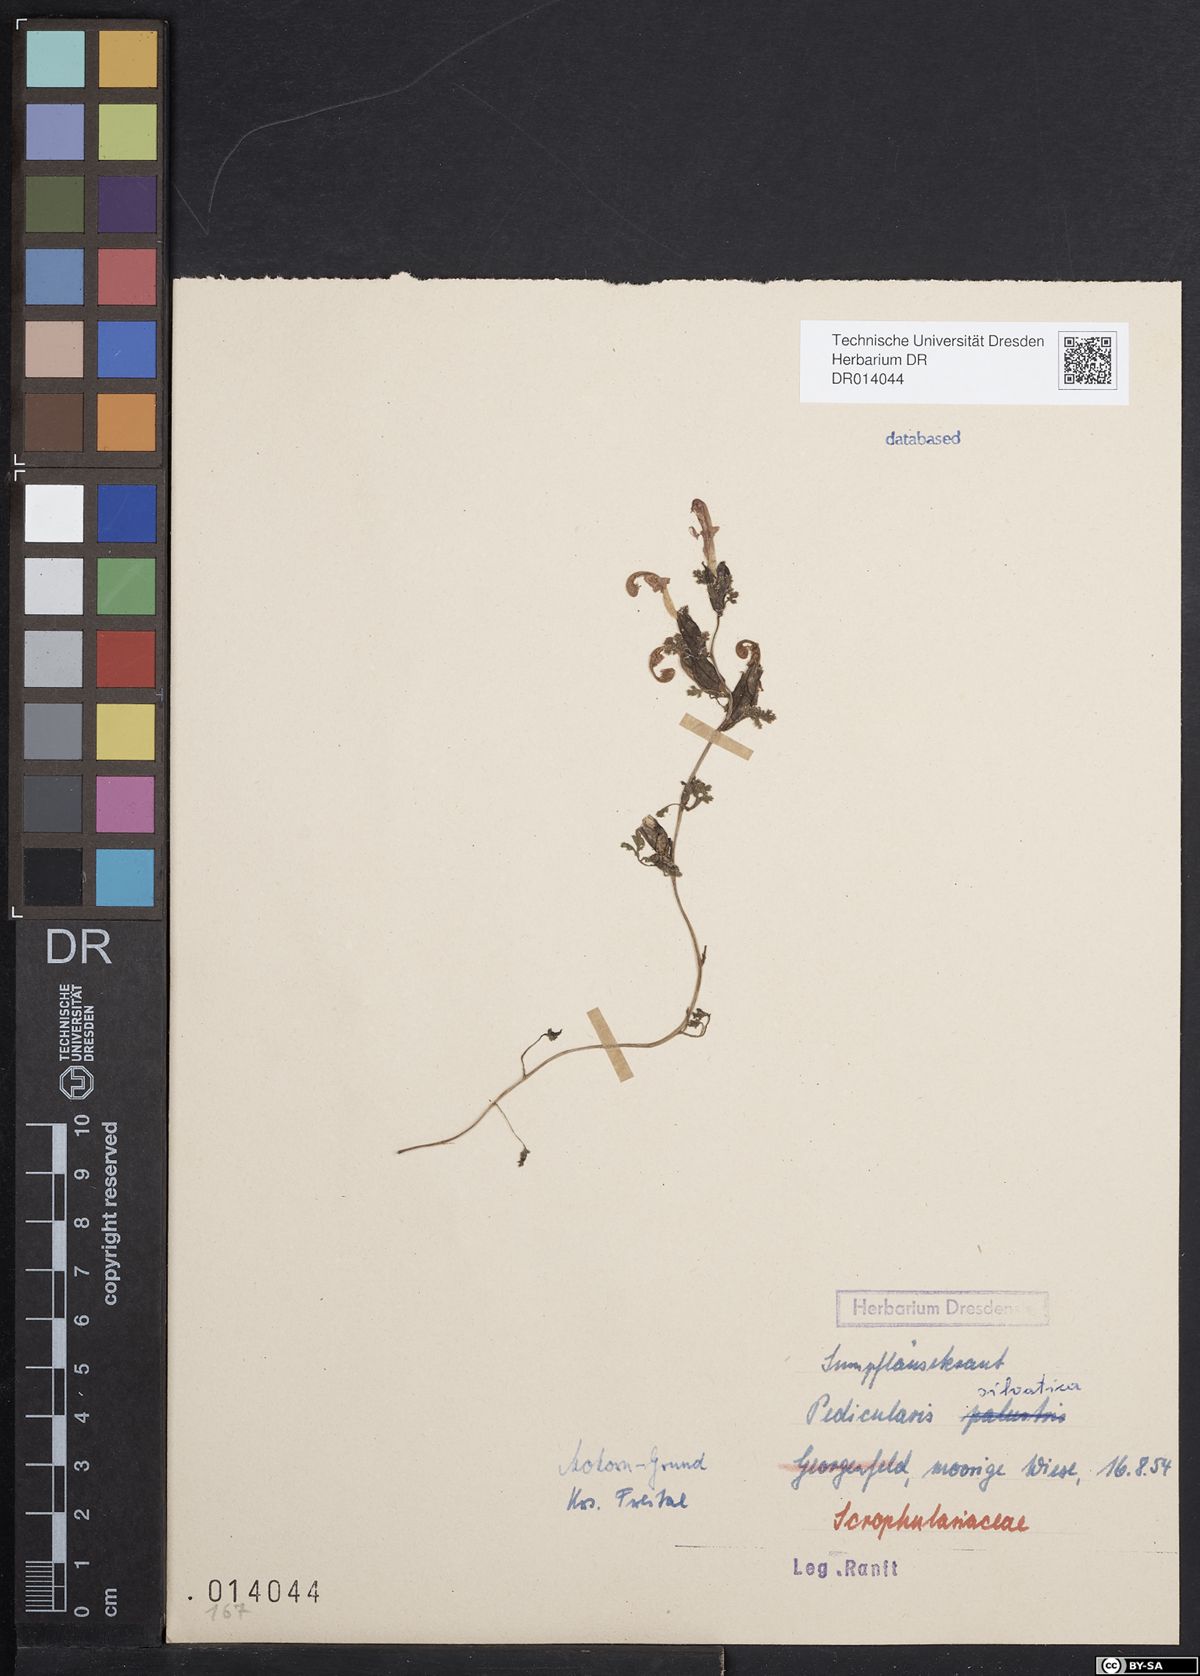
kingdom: Plantae
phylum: Tracheophyta
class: Magnoliopsida
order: Lamiales
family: Orobanchaceae
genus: Pedicularis
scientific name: Pedicularis sylvatica
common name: Lousewort
